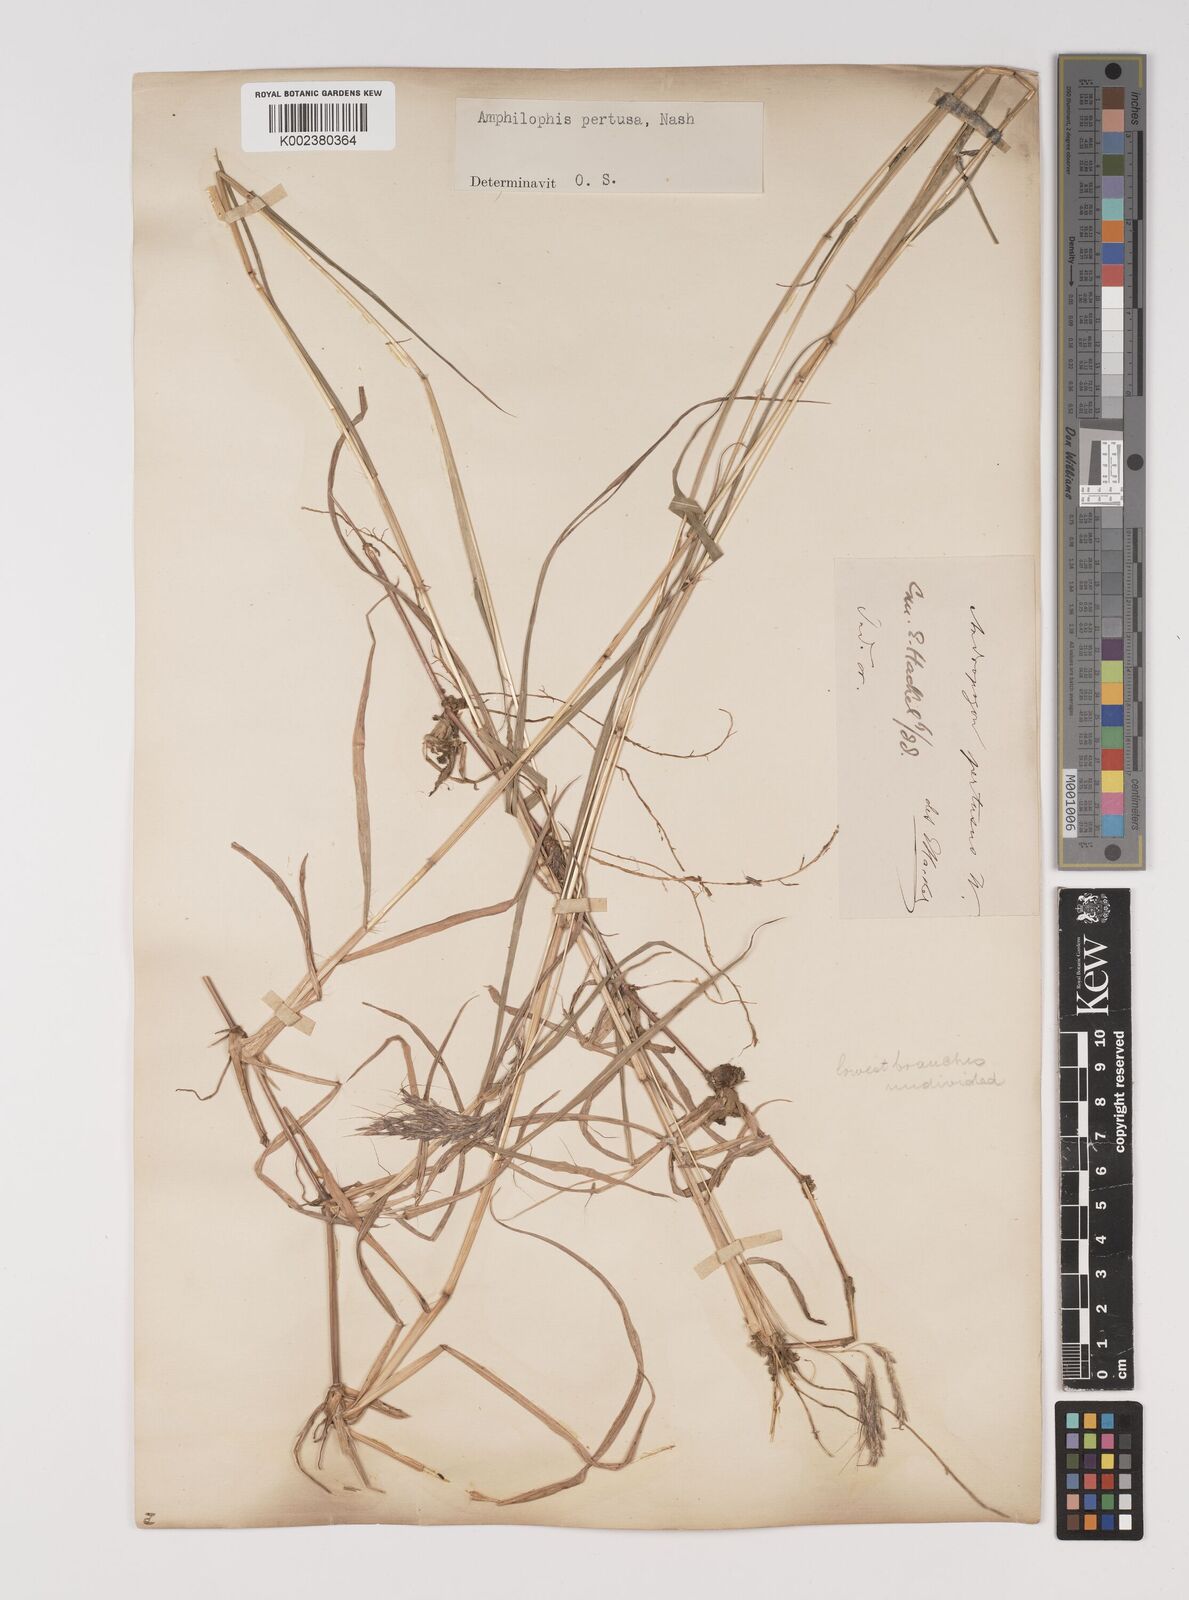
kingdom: Plantae
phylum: Tracheophyta
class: Liliopsida
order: Poales
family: Poaceae
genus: Bothriochloa
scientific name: Bothriochloa pertusa
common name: Pitted beardgrass
